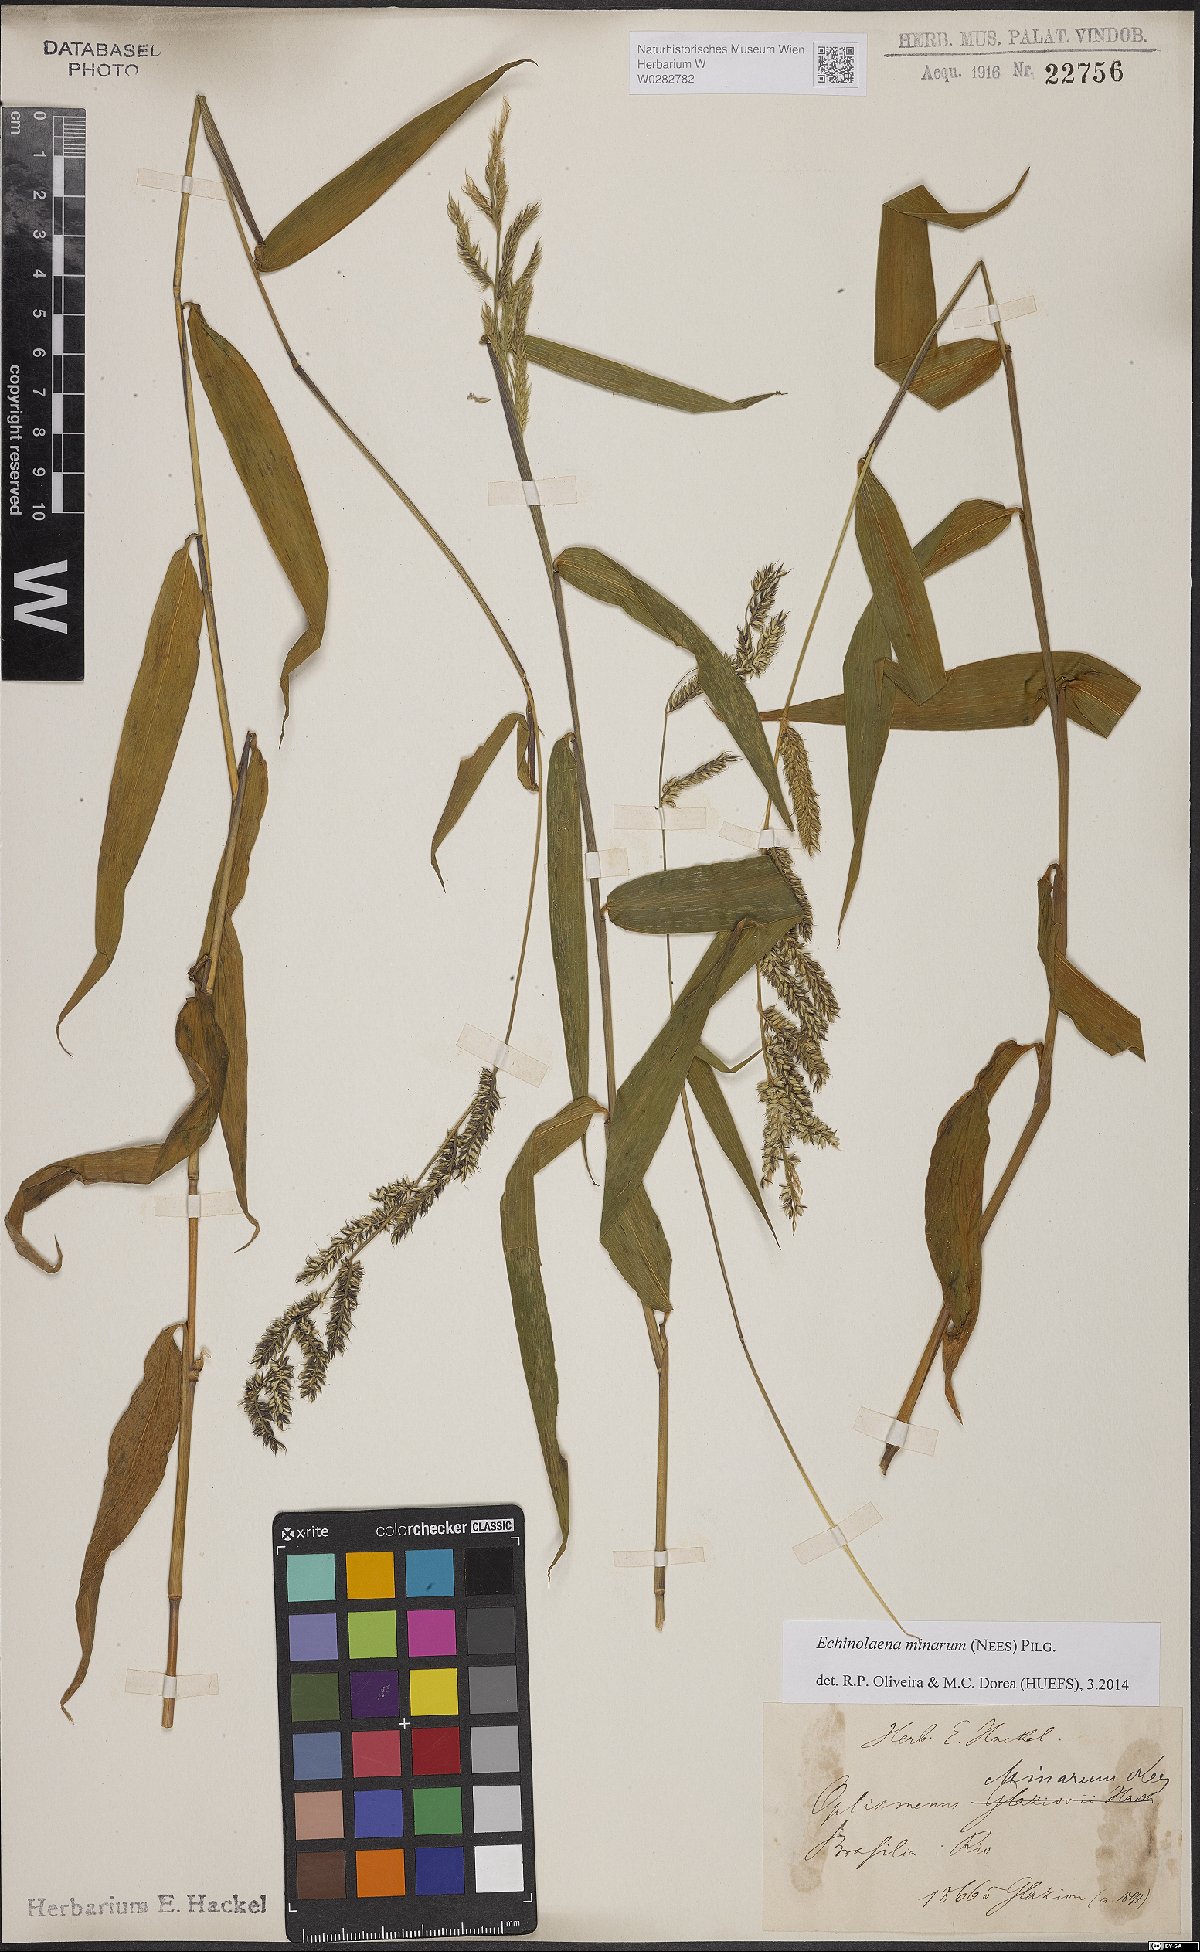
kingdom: Plantae
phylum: Tracheophyta
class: Liliopsida
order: Poales
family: Poaceae
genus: Oedochloa
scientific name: Oedochloa minarum
